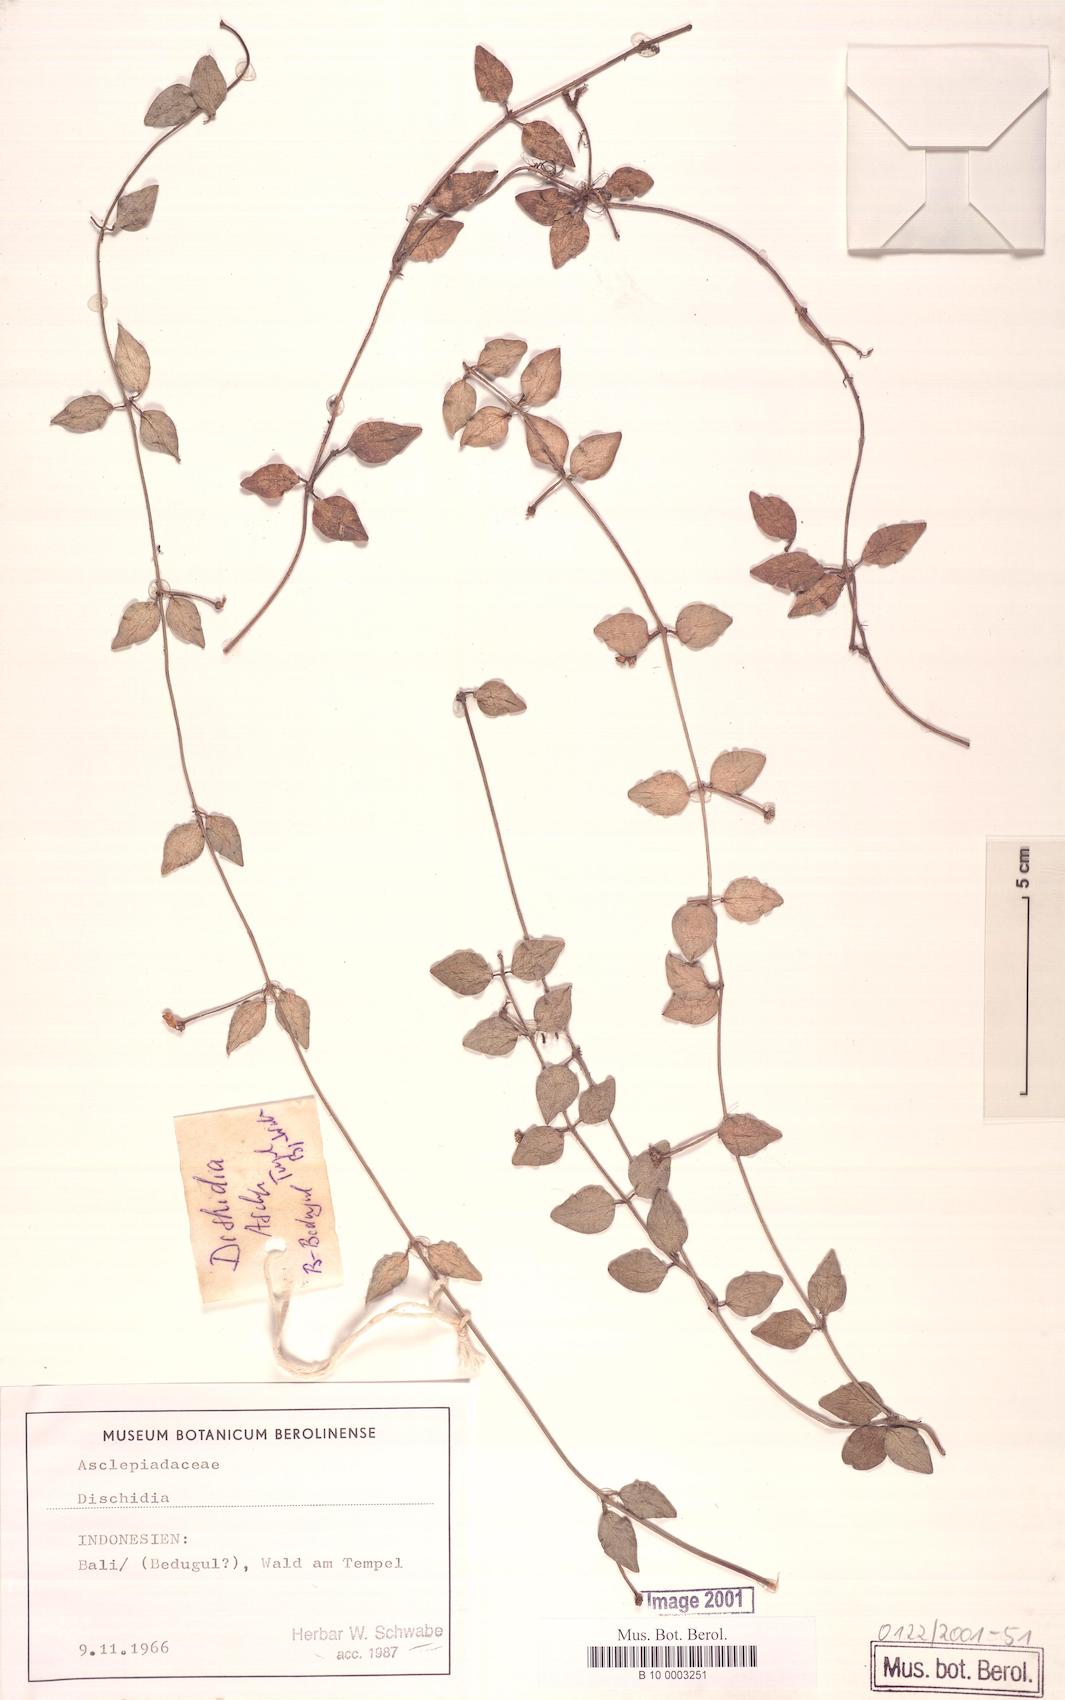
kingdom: Plantae
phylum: Tracheophyta
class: Magnoliopsida
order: Gentianales
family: Apocynaceae
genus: Dischidia
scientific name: Dischidia
